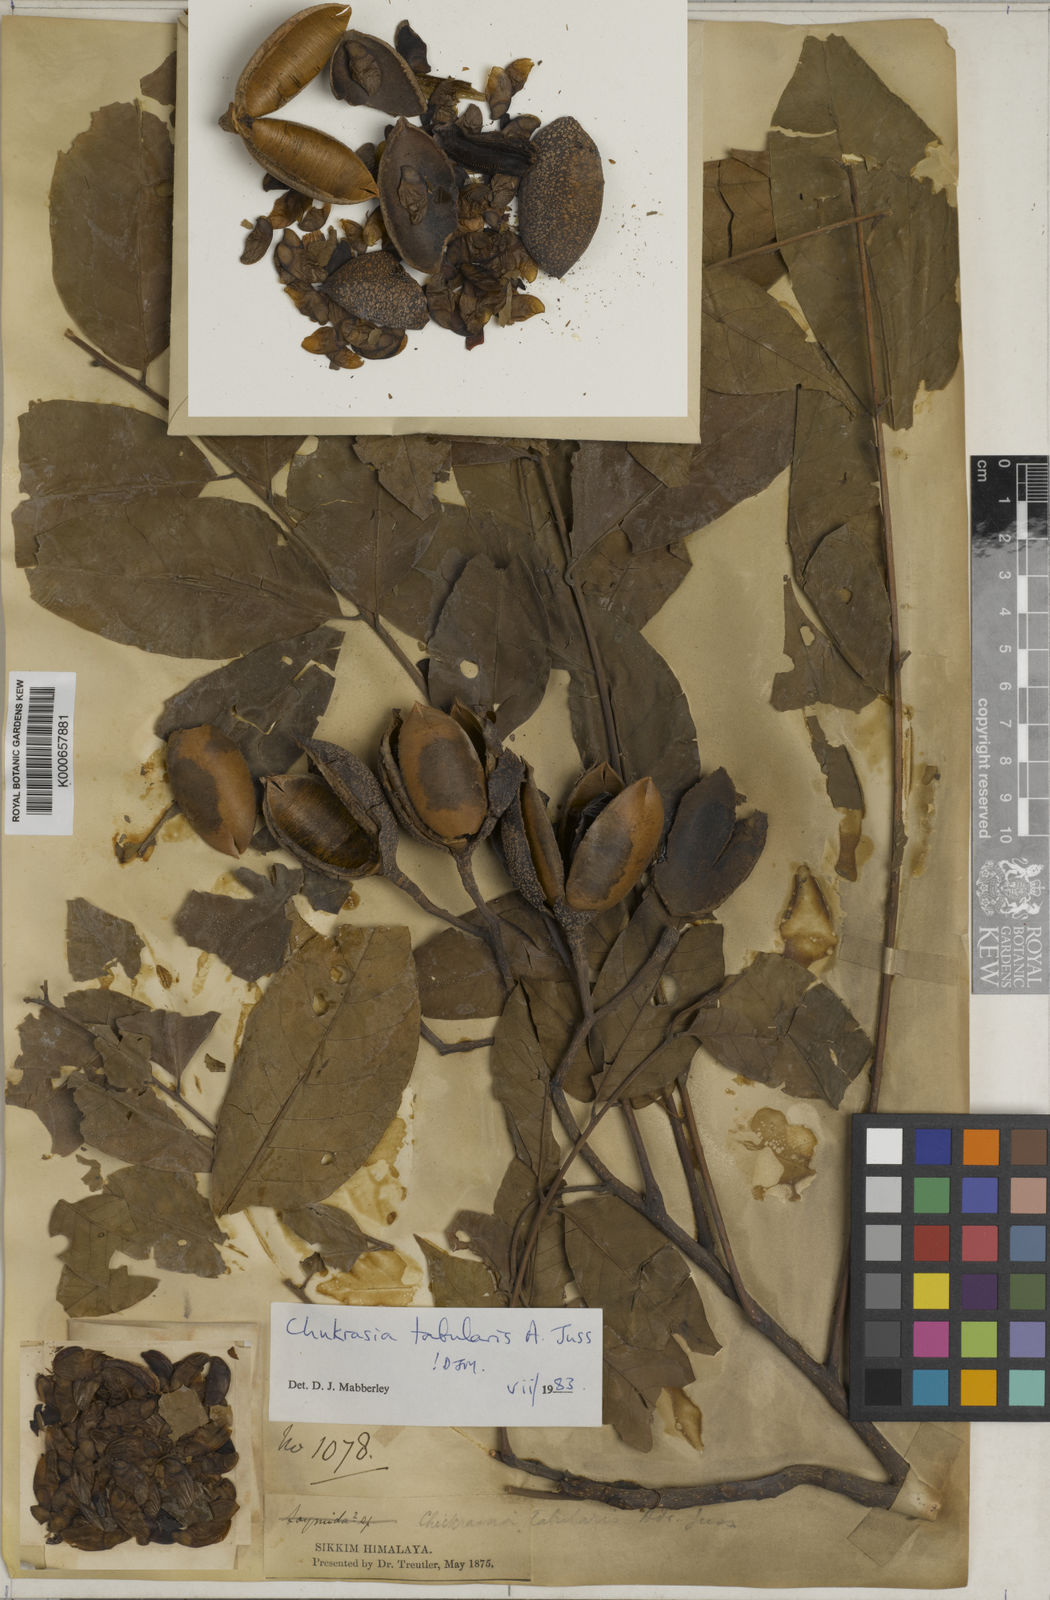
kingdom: Plantae
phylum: Tracheophyta
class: Magnoliopsida
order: Sapindales
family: Meliaceae
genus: Chukrasia
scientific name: Chukrasia tabularis
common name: Chittagong wood
